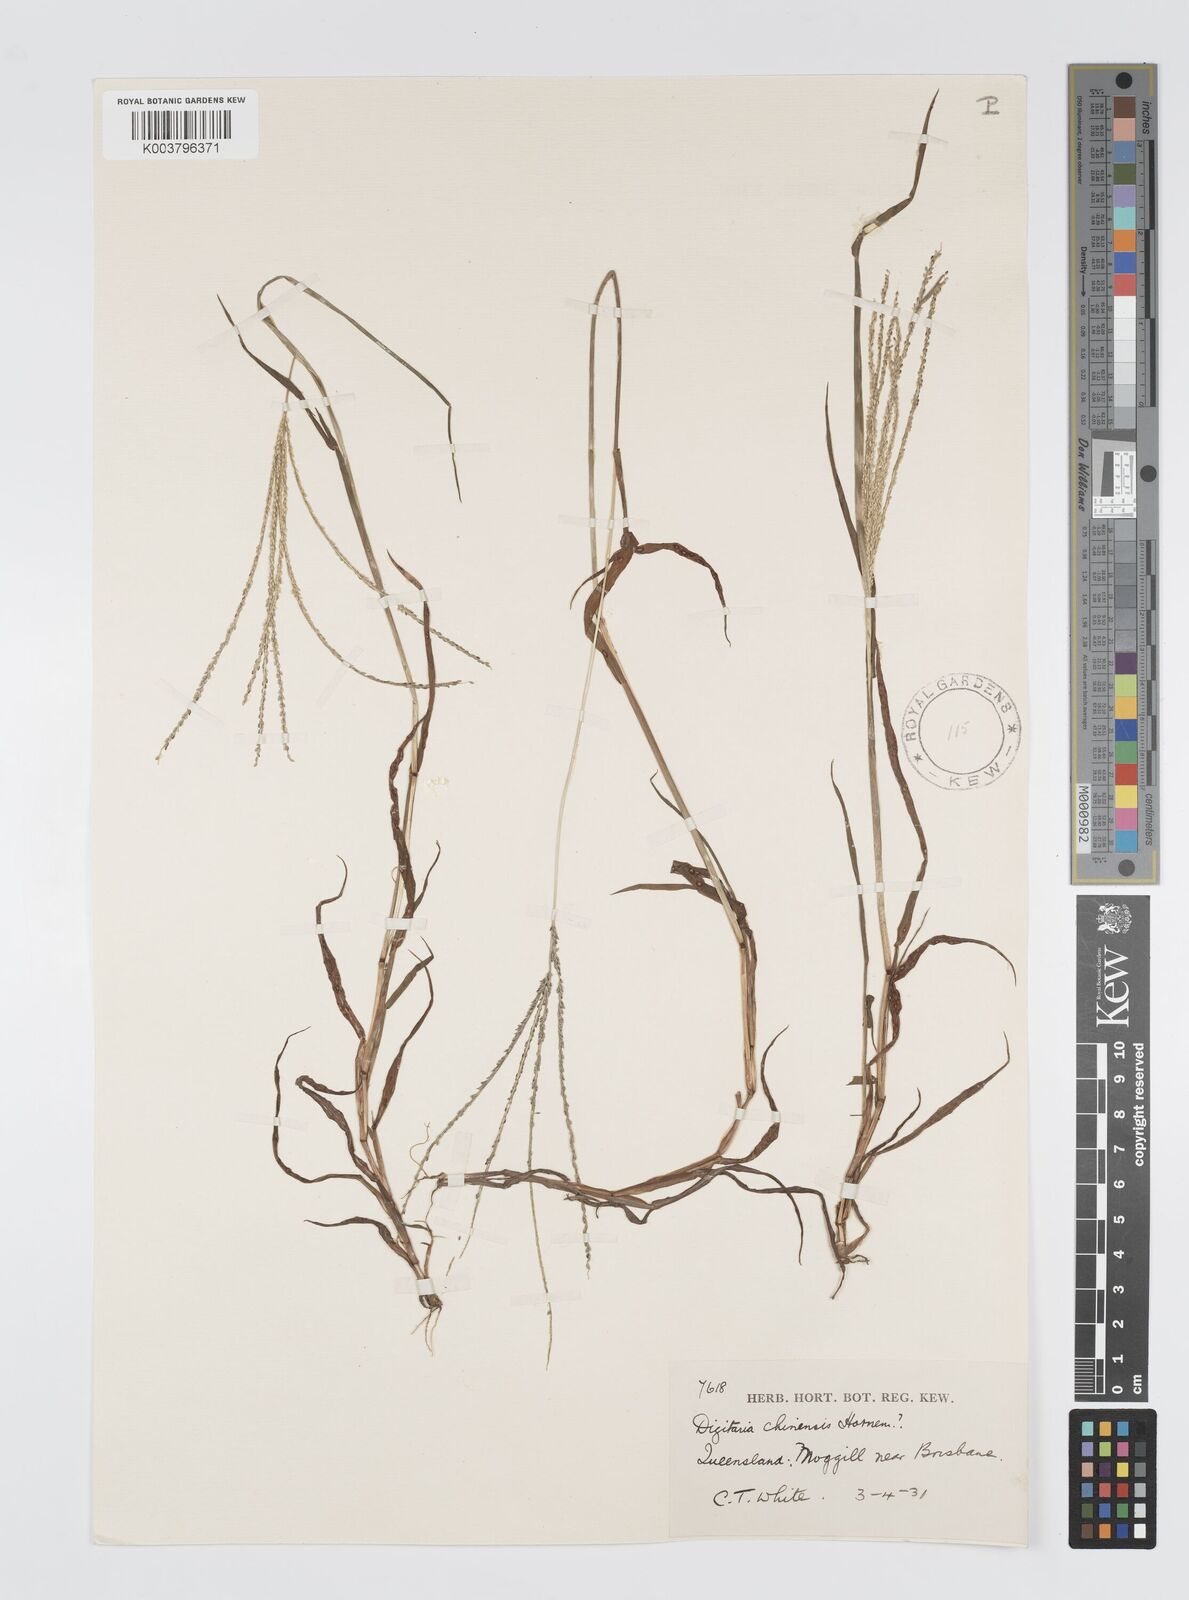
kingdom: Plantae
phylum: Tracheophyta
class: Liliopsida
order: Poales
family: Poaceae
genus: Digitaria
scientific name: Digitaria violascens
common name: Violet crabgrass
